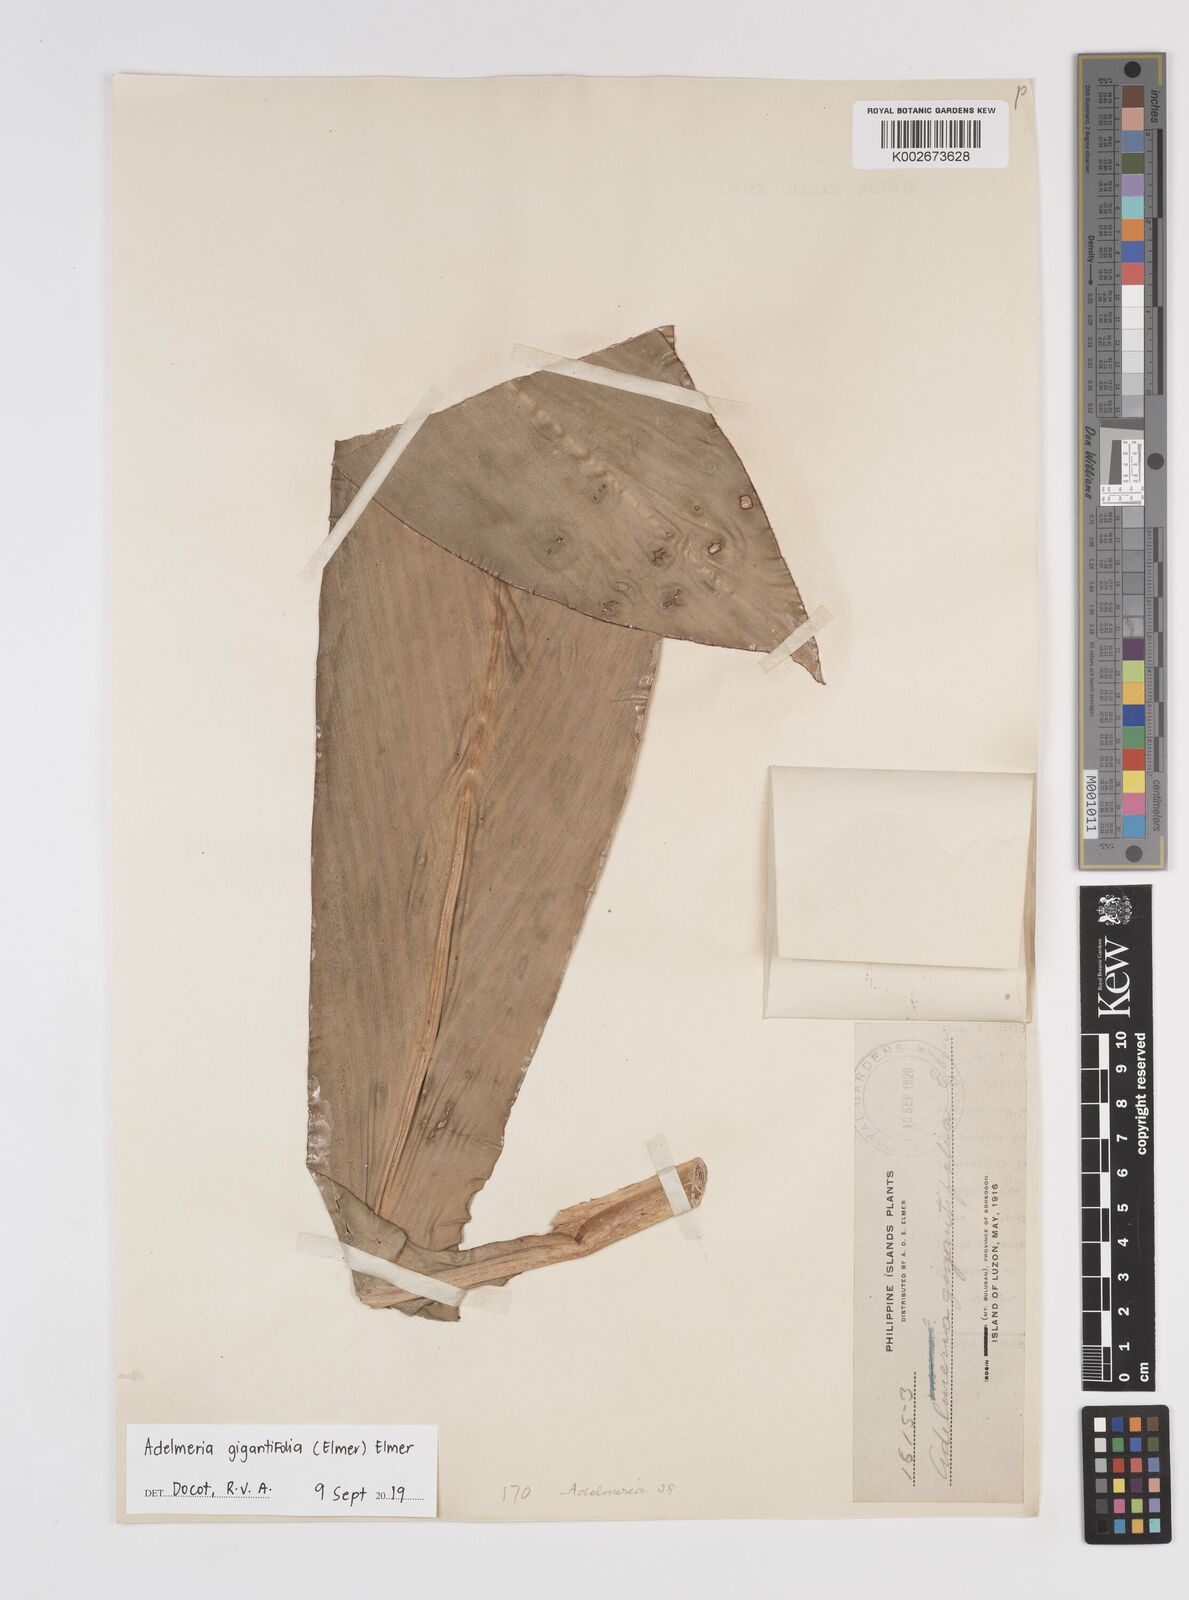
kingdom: Plantae
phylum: Tracheophyta
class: Liliopsida
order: Zingiberales
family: Zingiberaceae
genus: Adelmeria
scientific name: Adelmeria gigantifolia
